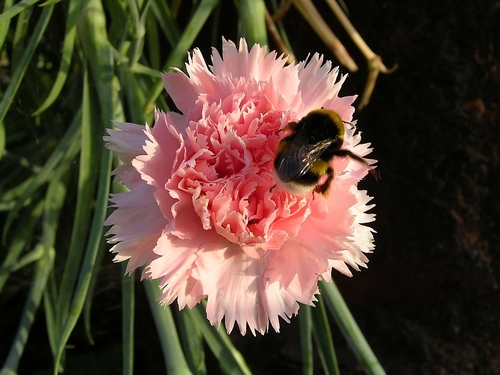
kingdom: Animalia
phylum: Arthropoda
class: Insecta
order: Hymenoptera
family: Apidae
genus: Bombus
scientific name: Bombus terrestris
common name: Buff-tailed bumblebee
